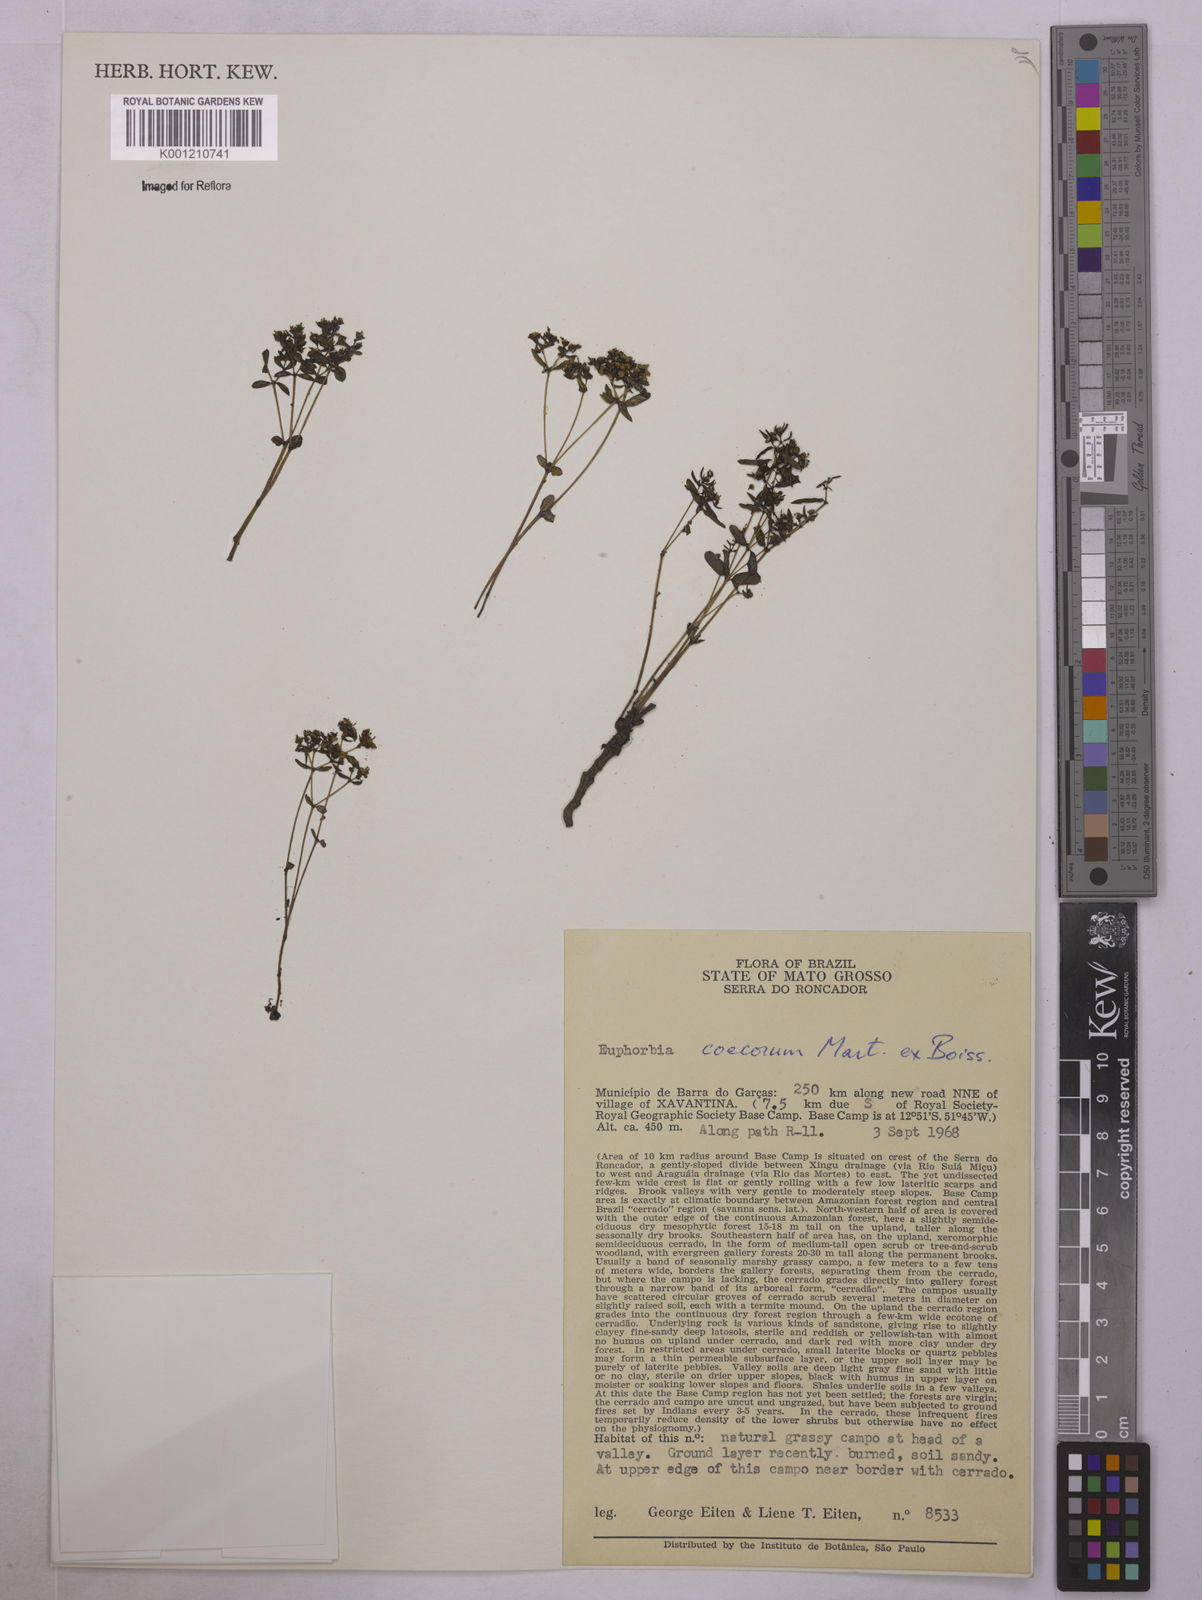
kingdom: Plantae
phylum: Tracheophyta
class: Magnoliopsida
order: Malpighiales
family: Euphorbiaceae
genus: Euphorbia
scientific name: Euphorbia potentilloides
